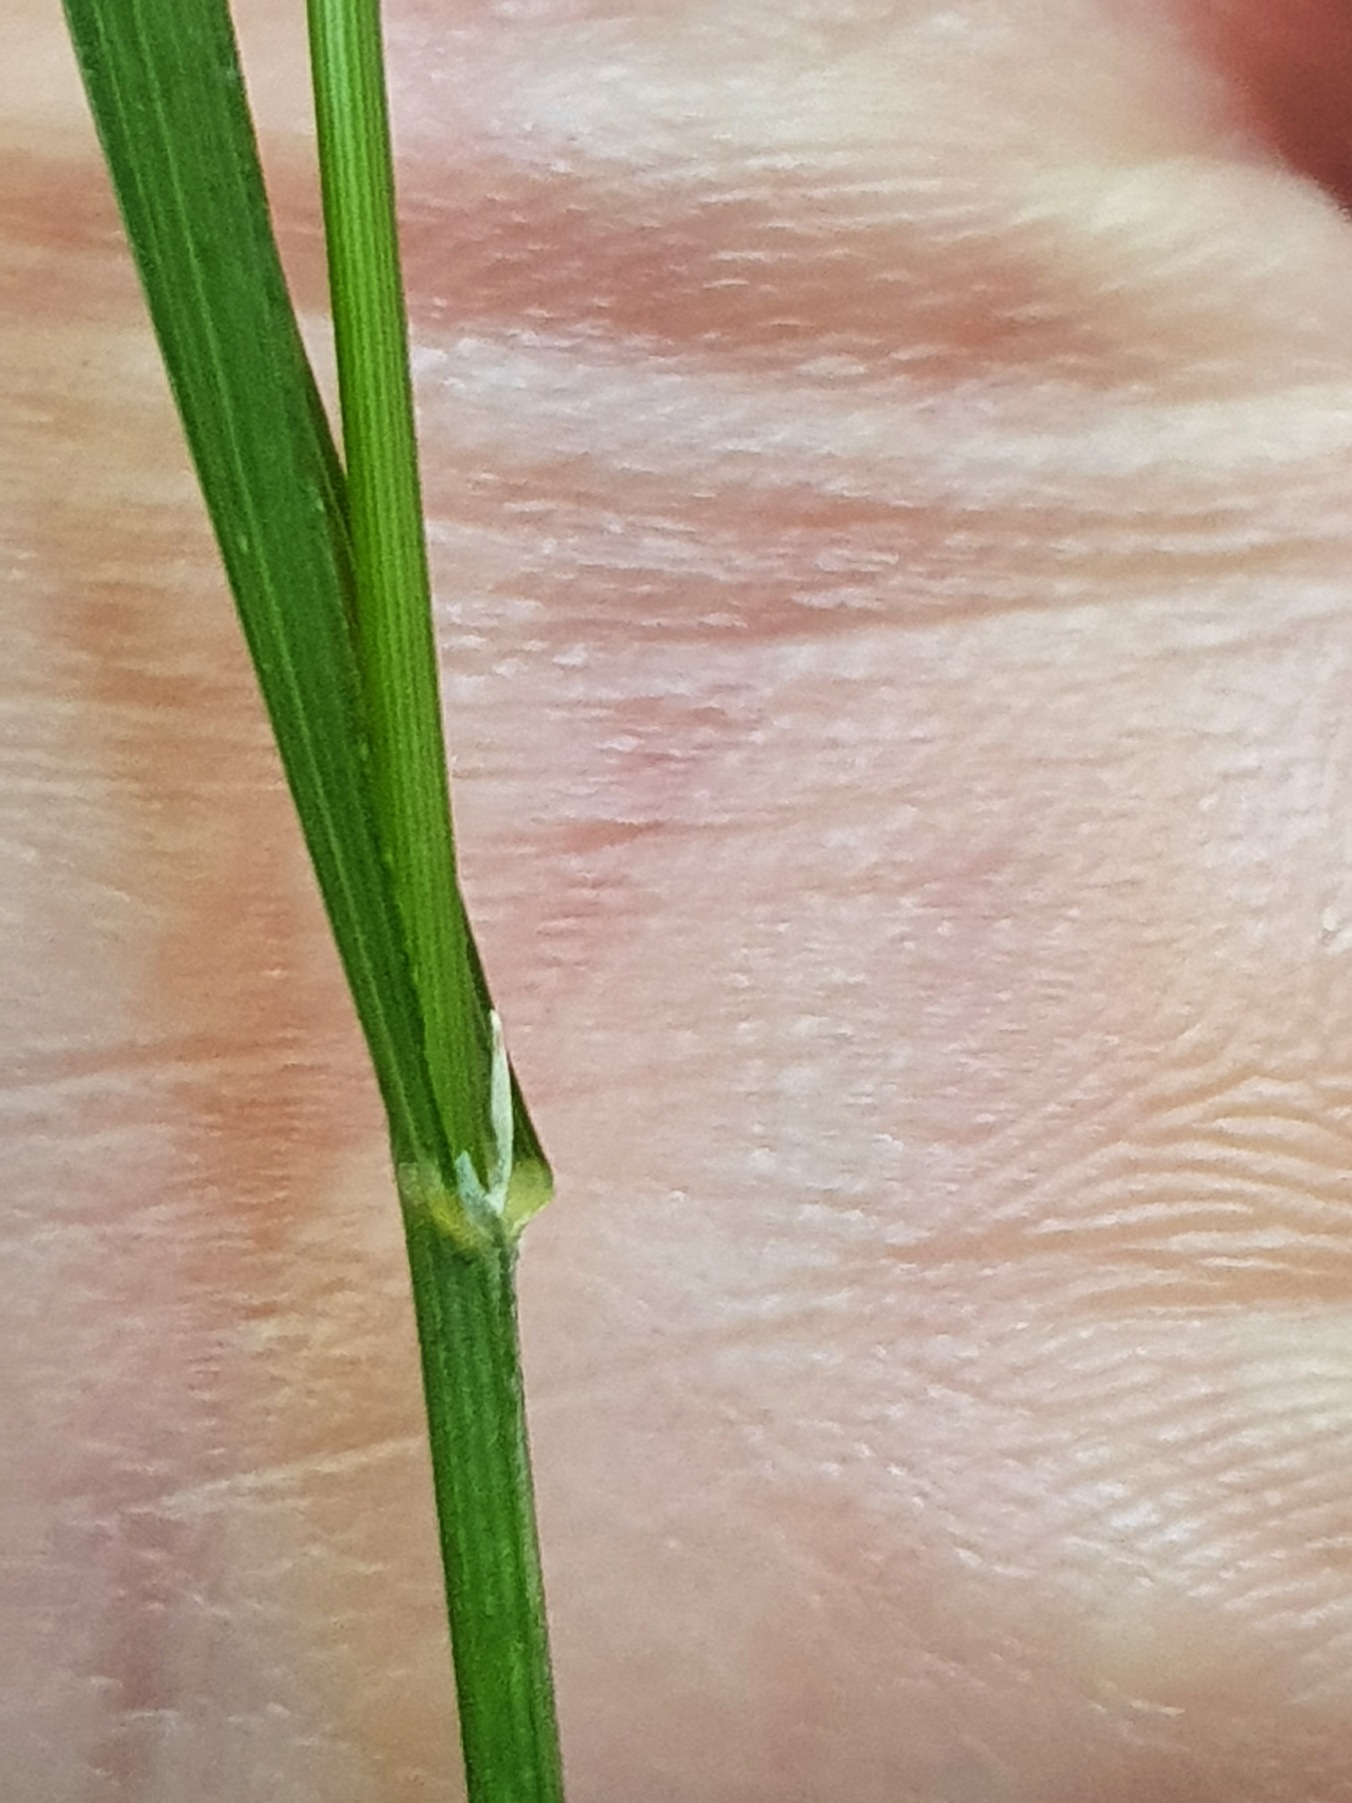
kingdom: Plantae
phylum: Tracheophyta
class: Liliopsida
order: Poales
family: Poaceae
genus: Melica
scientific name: Melica uniflora
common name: Enblomstret flitteraks
